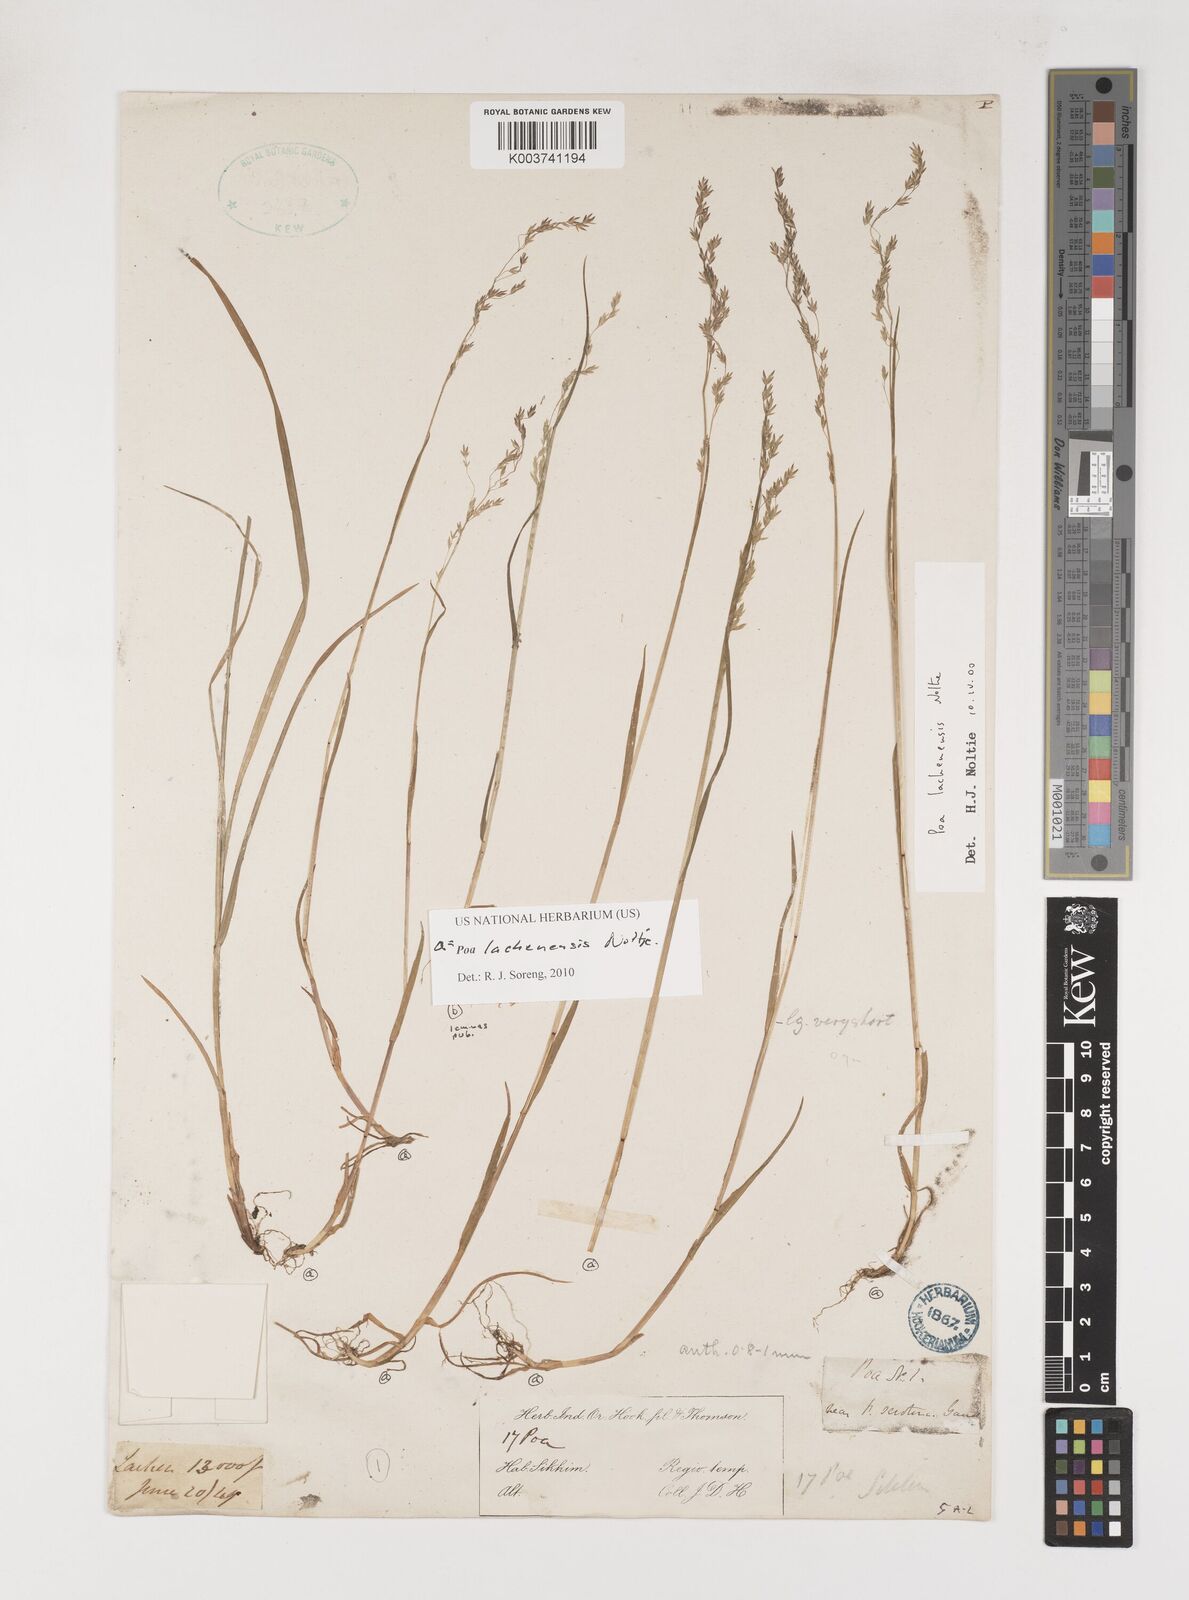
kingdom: Plantae
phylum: Tracheophyta
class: Liliopsida
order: Poales
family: Poaceae
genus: Poa
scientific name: Poa lachenensis
